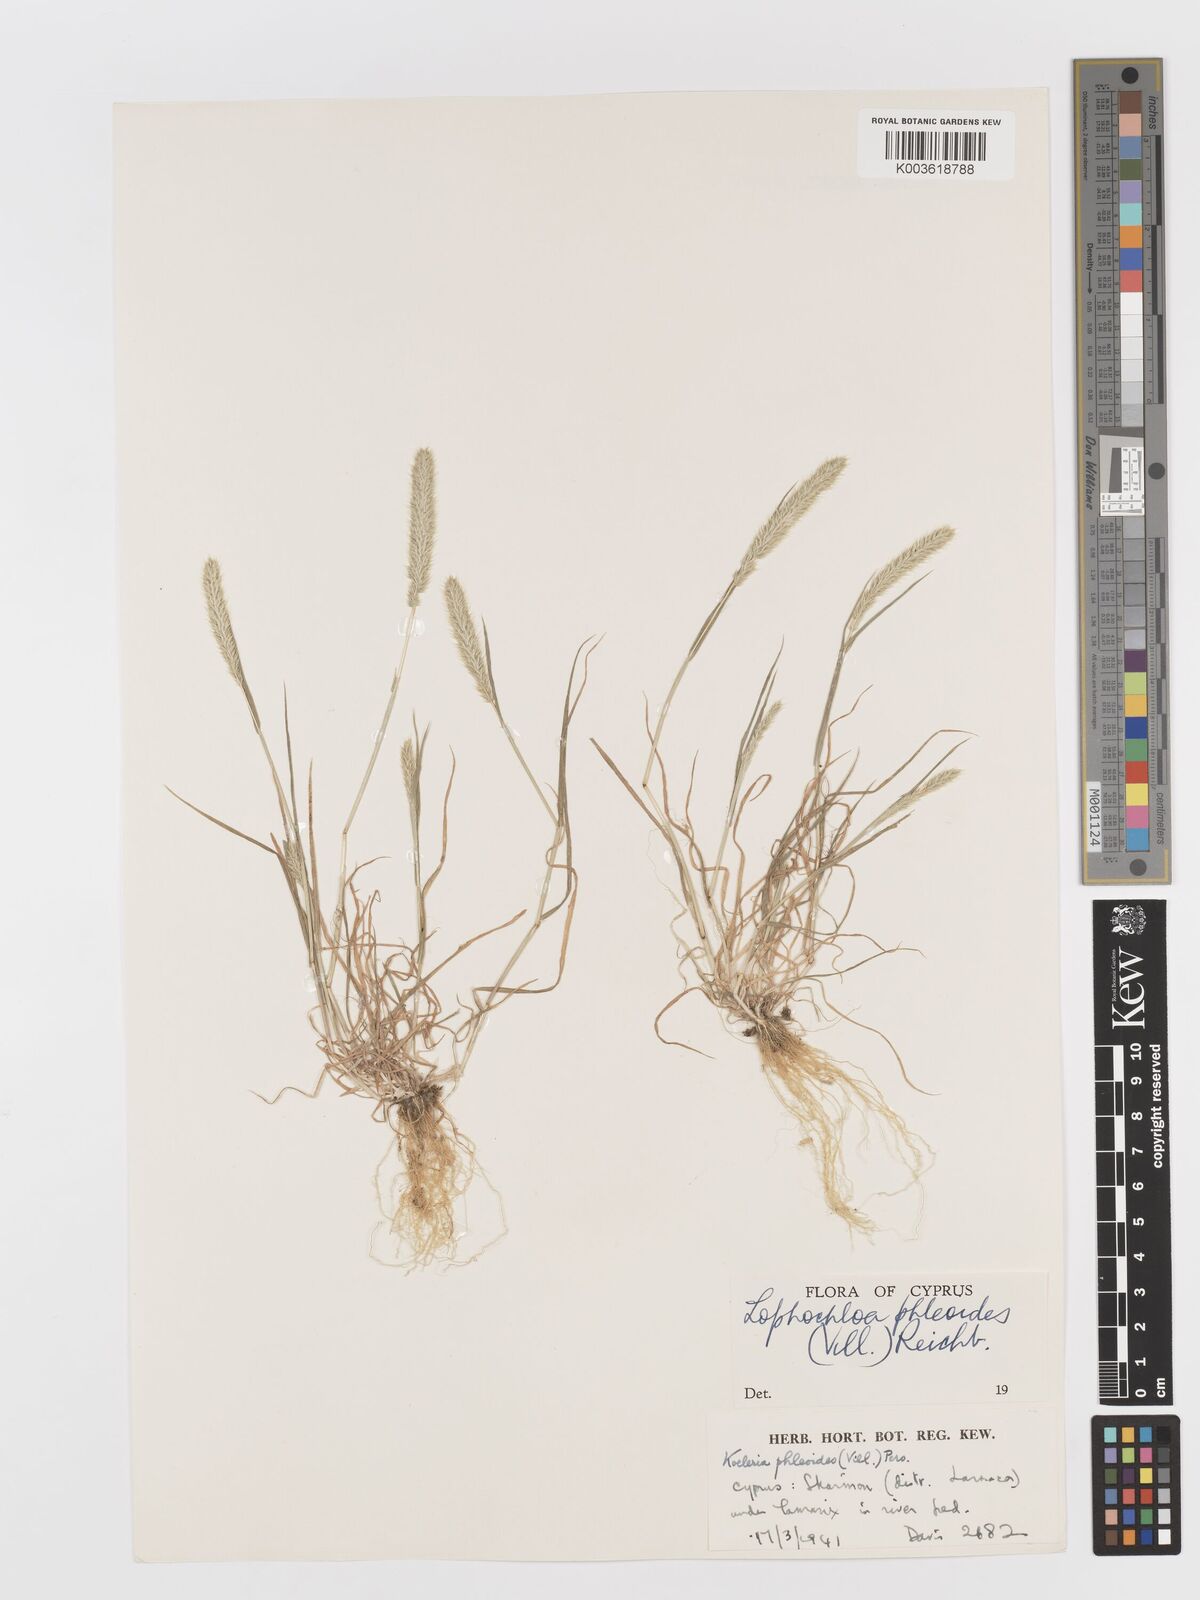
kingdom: Plantae
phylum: Tracheophyta
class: Liliopsida
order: Poales
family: Poaceae
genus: Rostraria
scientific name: Rostraria cristata
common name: Mediterranean hair-grass
